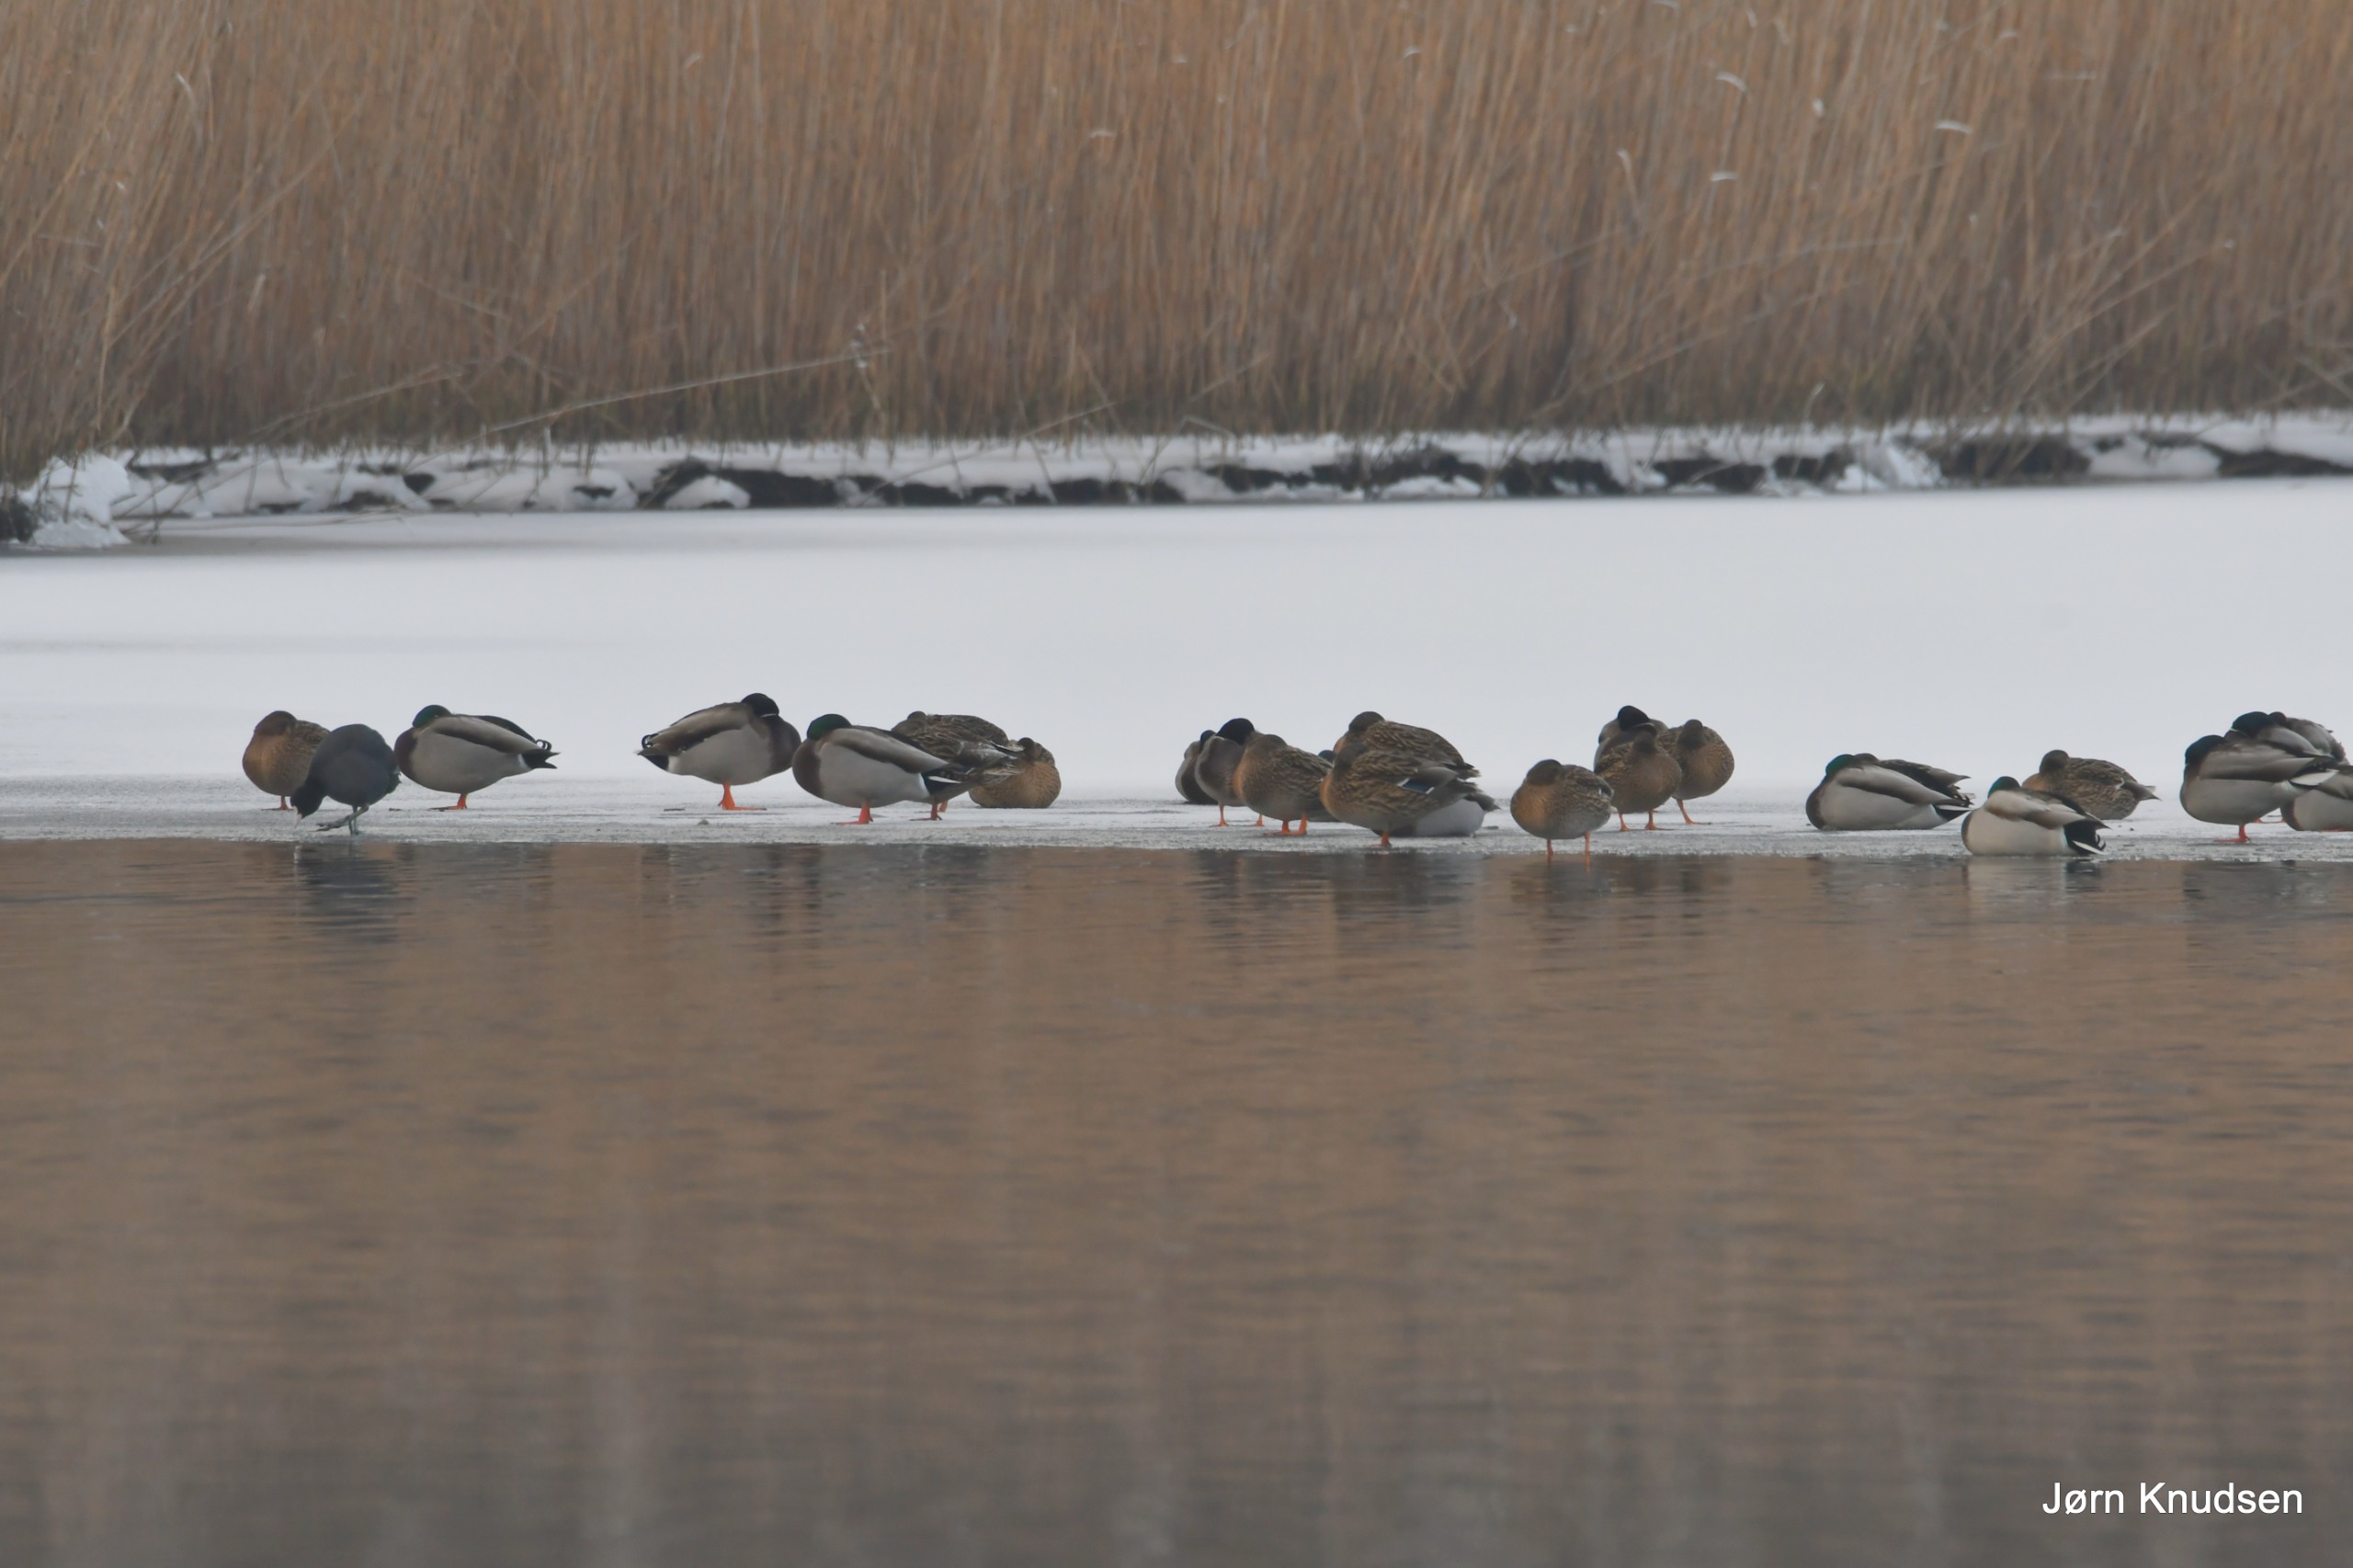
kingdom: Animalia
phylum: Chordata
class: Aves
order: Anseriformes
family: Anatidae
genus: Anas
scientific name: Anas platyrhynchos
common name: Gråand
